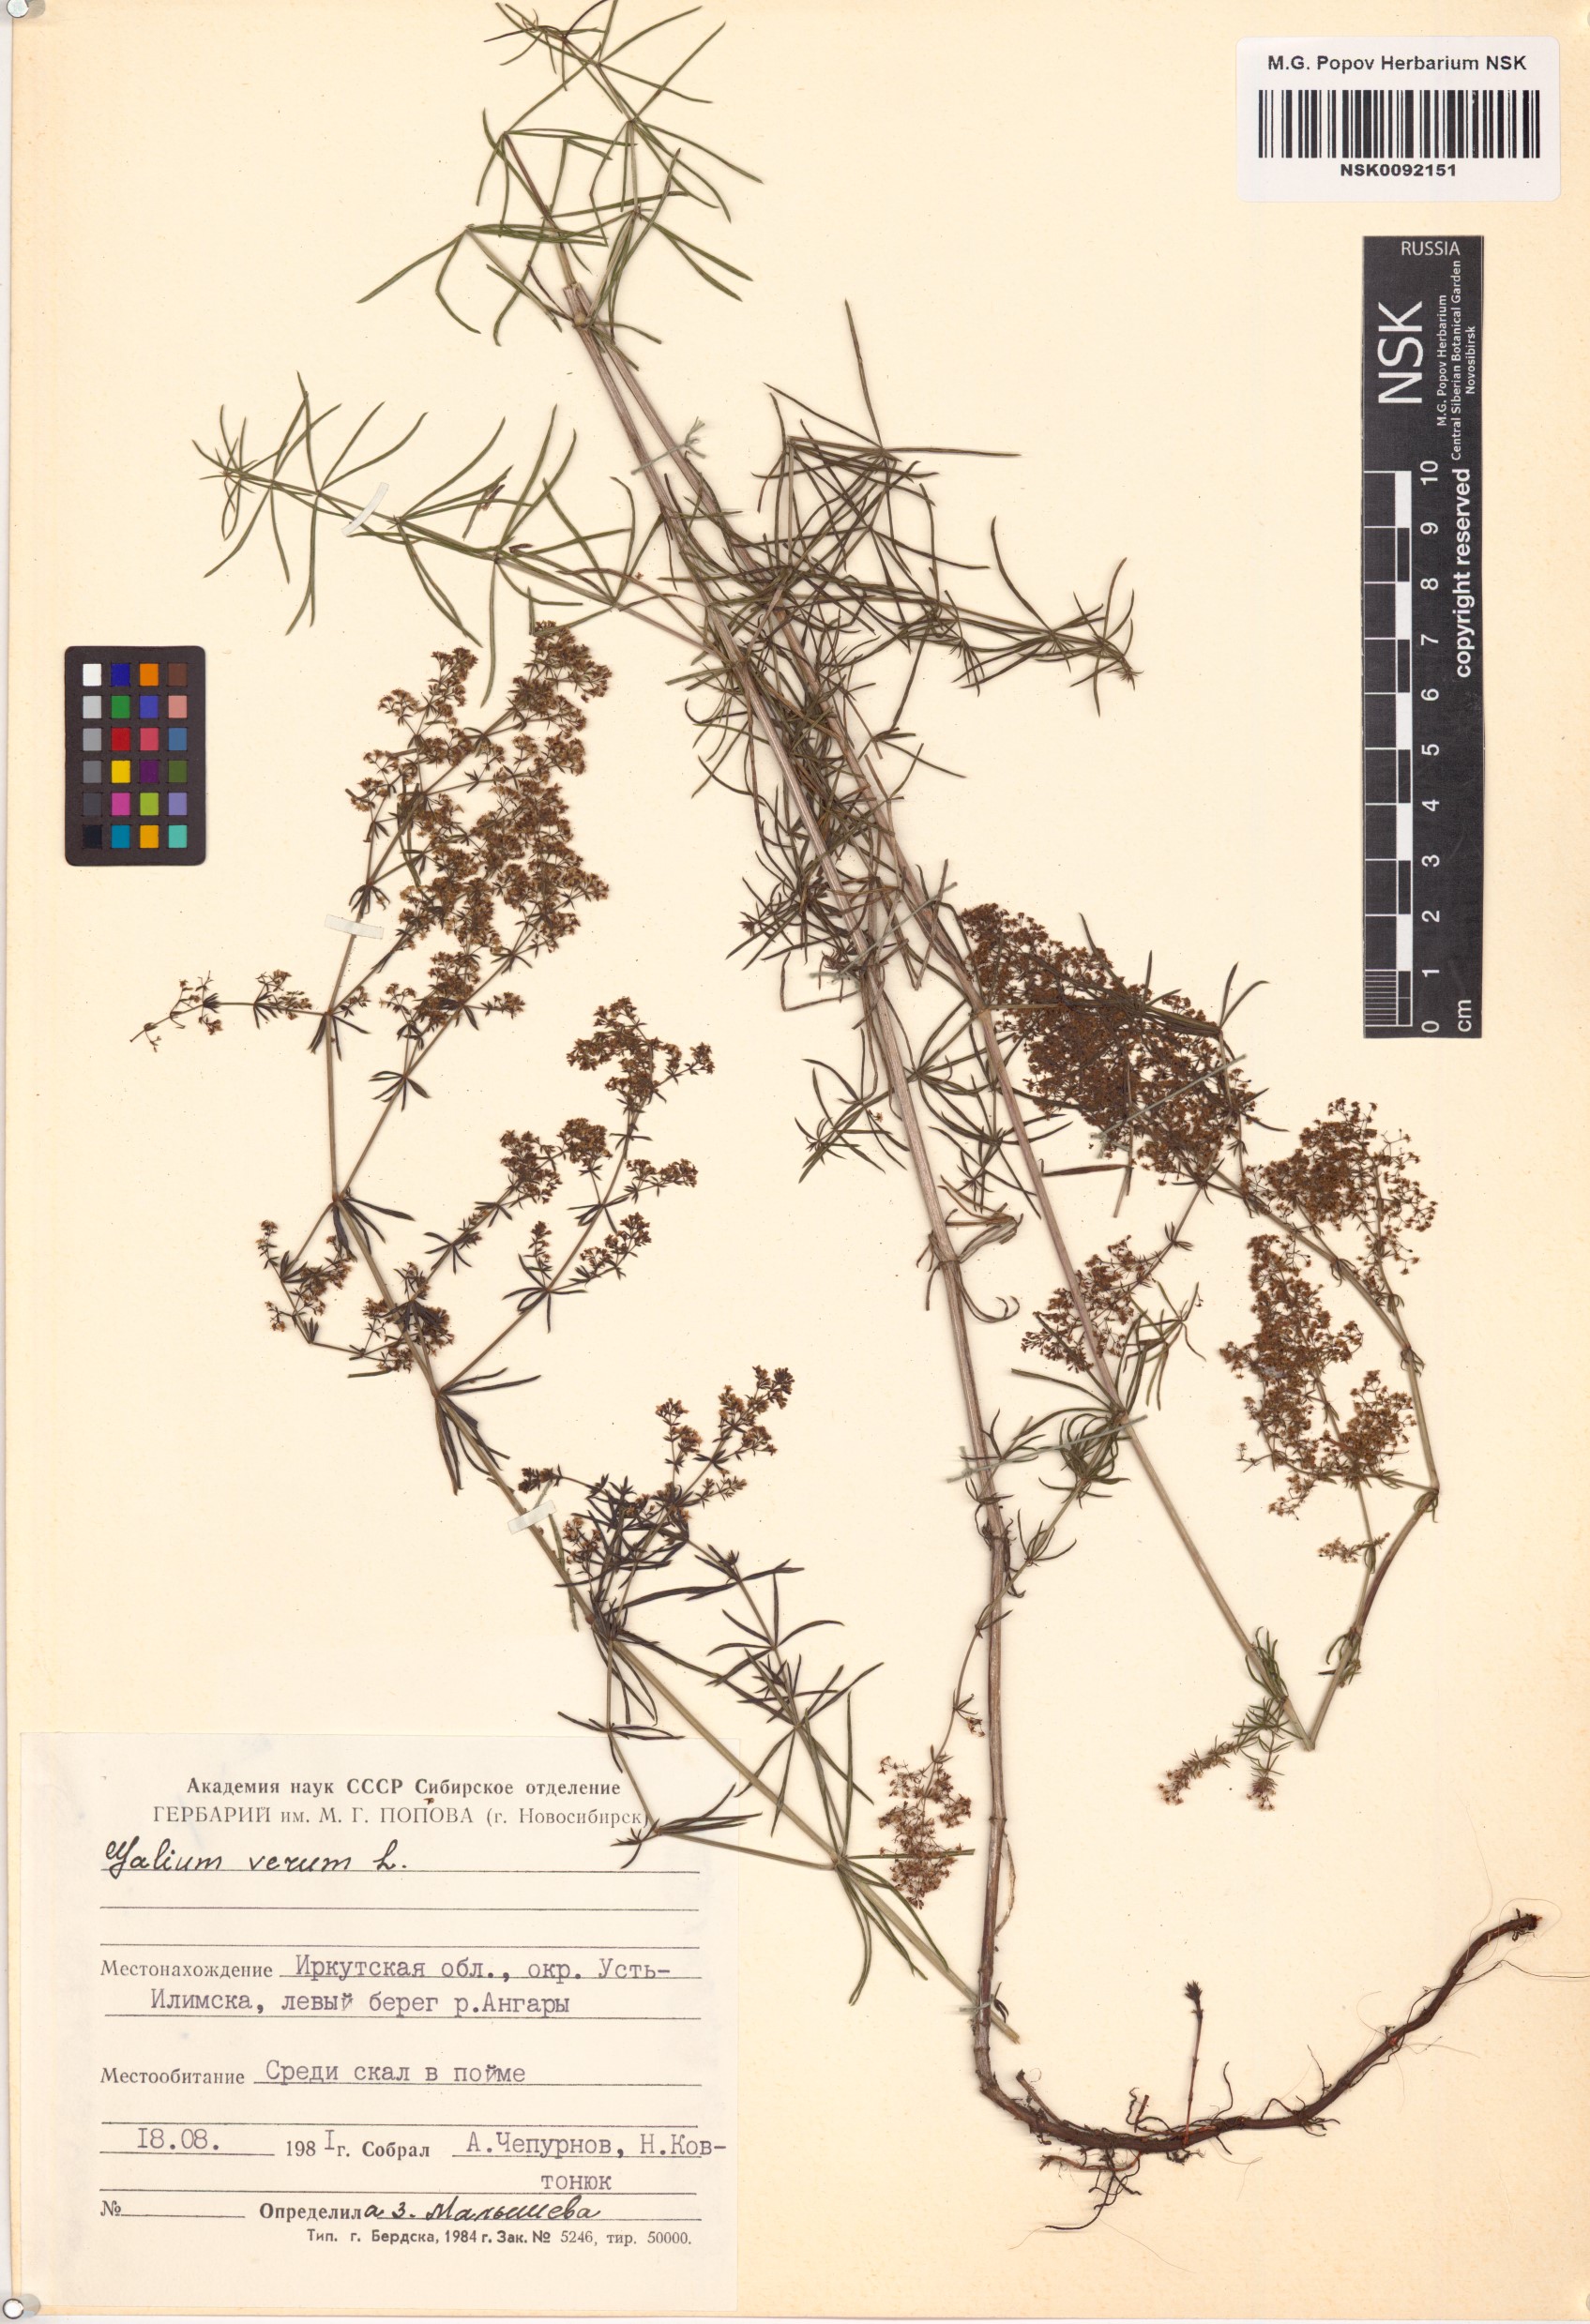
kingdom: Plantae
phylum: Tracheophyta
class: Magnoliopsida
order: Gentianales
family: Rubiaceae
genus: Galium
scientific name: Galium verum
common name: Lady's bedstraw
